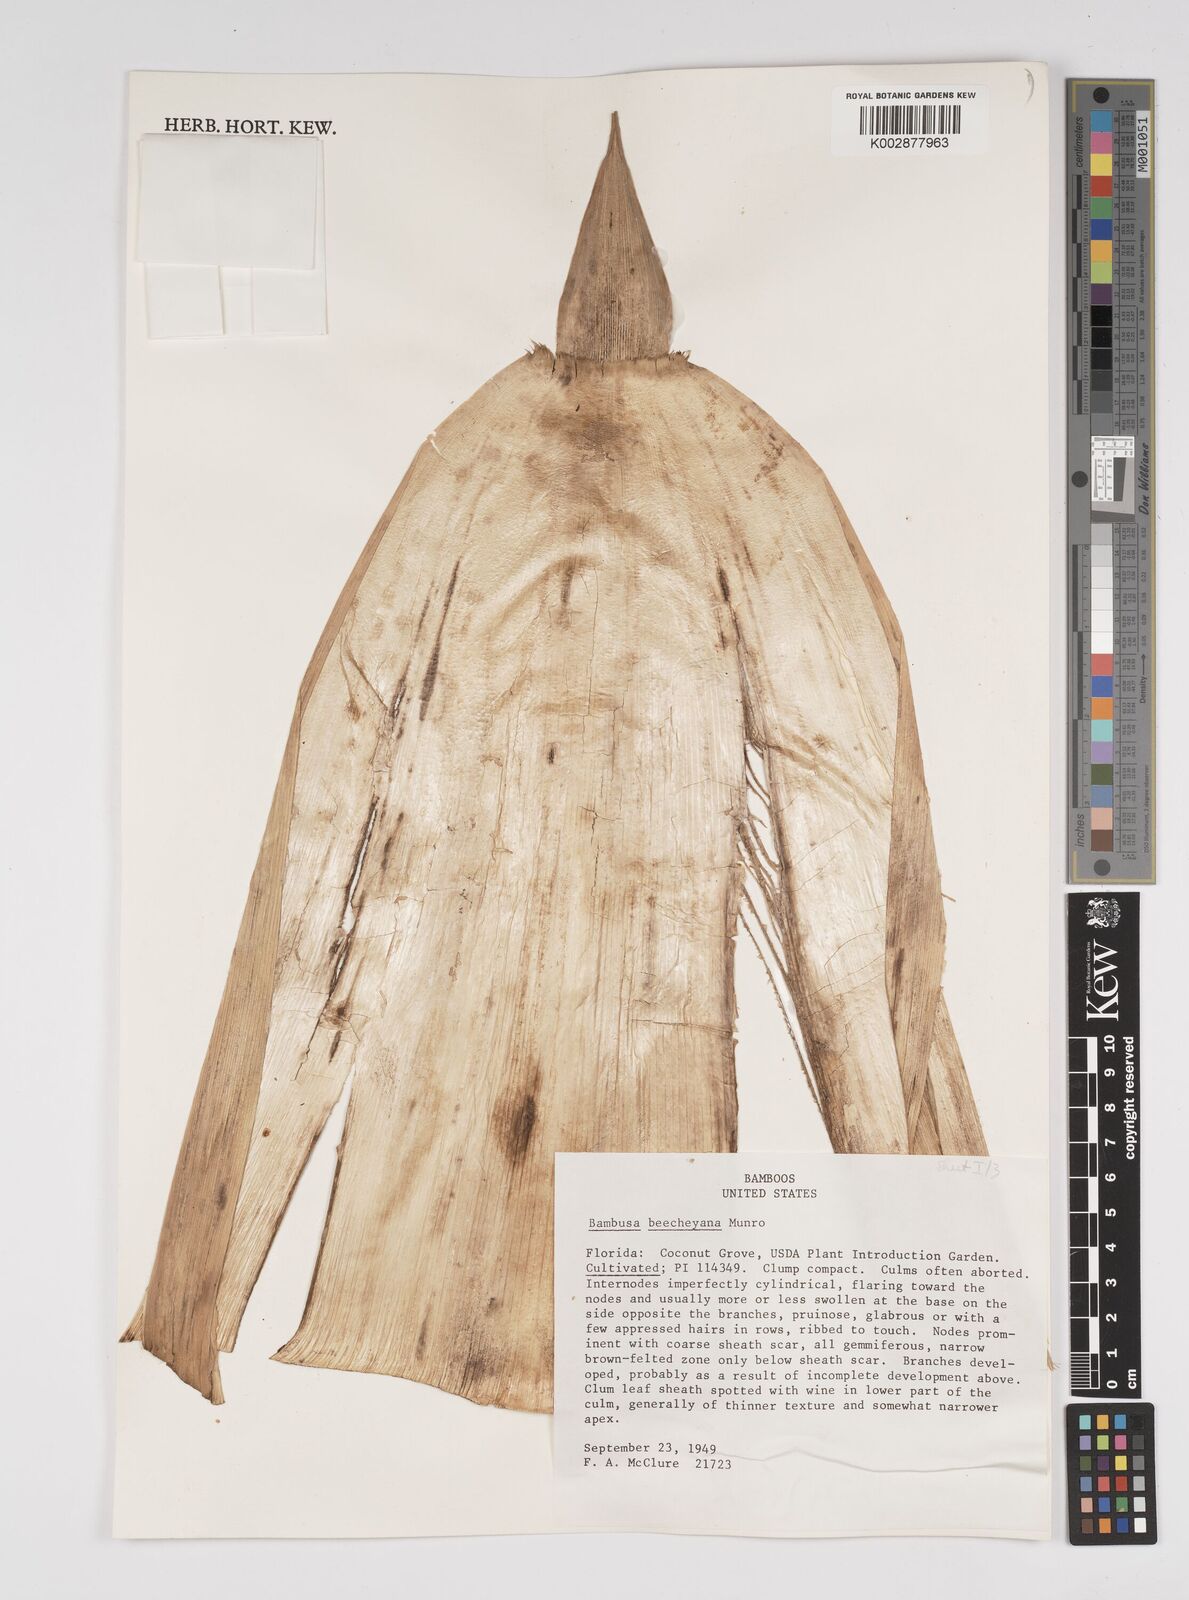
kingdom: Plantae
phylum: Tracheophyta
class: Liliopsida
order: Poales
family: Poaceae
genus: Bambusa
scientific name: Bambusa beecheyana
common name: Beechey's bamboo
